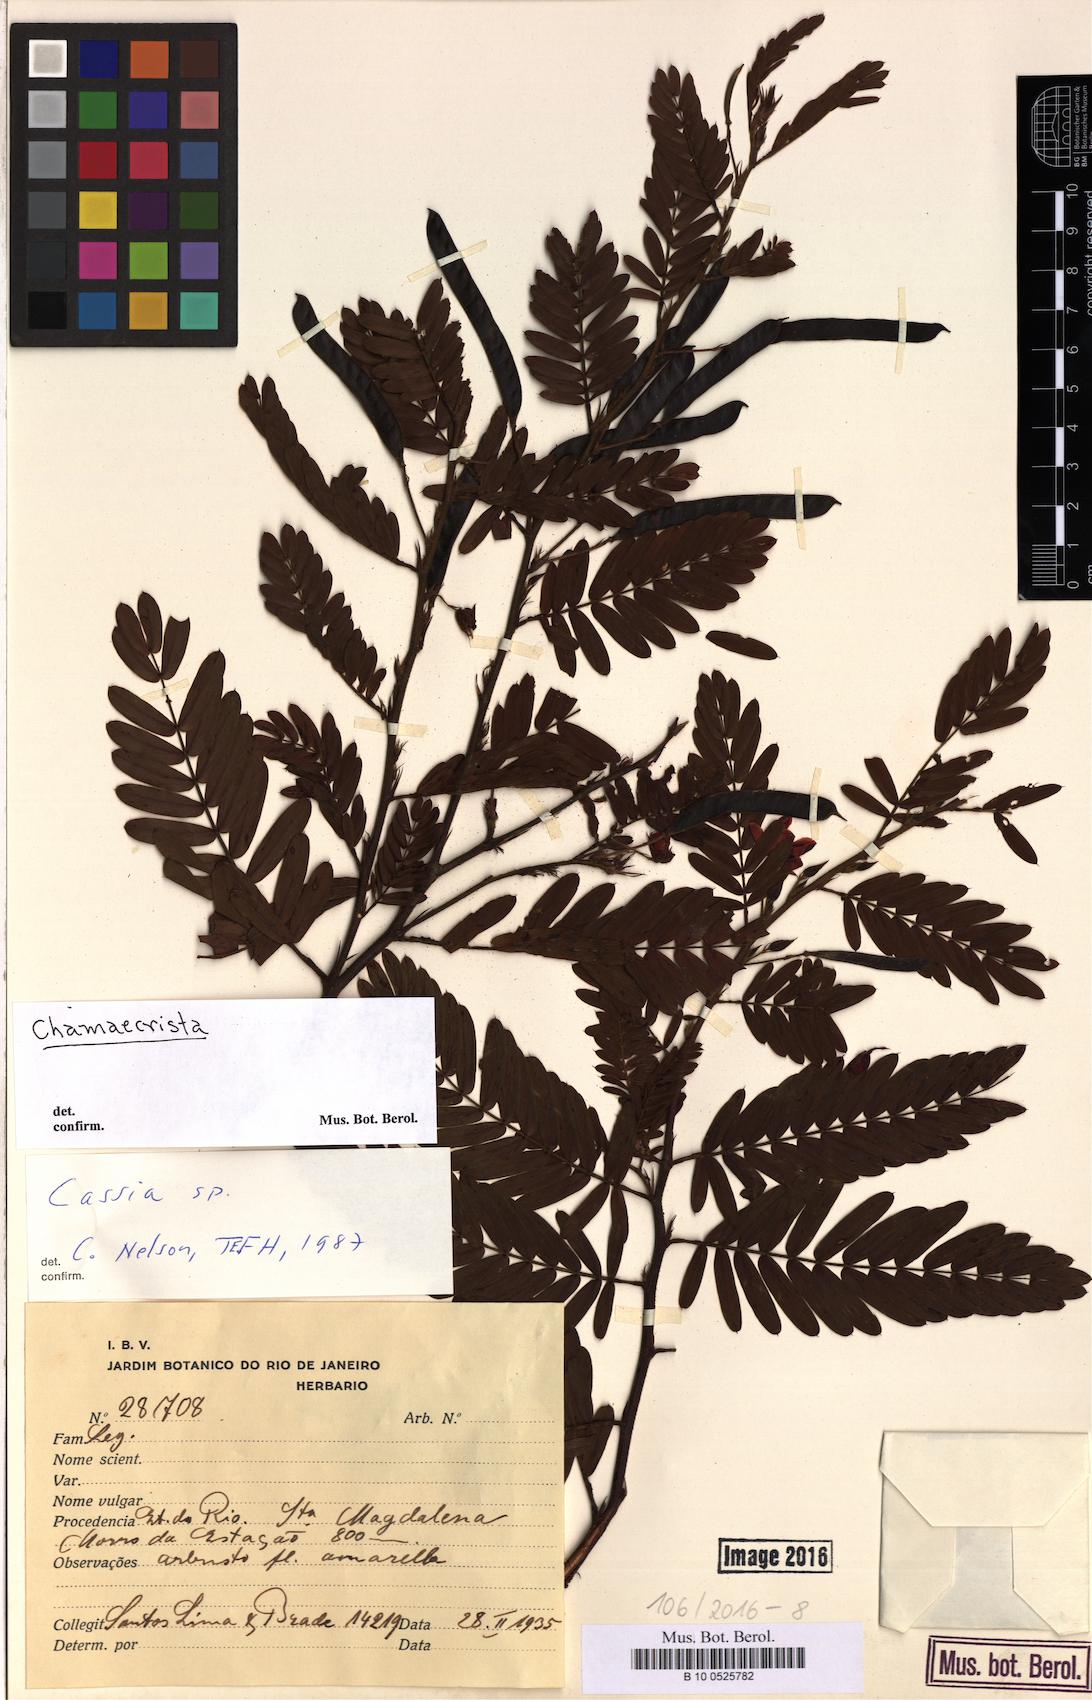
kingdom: Plantae
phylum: Tracheophyta
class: Magnoliopsida
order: Fabales
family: Fabaceae
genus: Chamaecrista
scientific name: Chamaecrista
